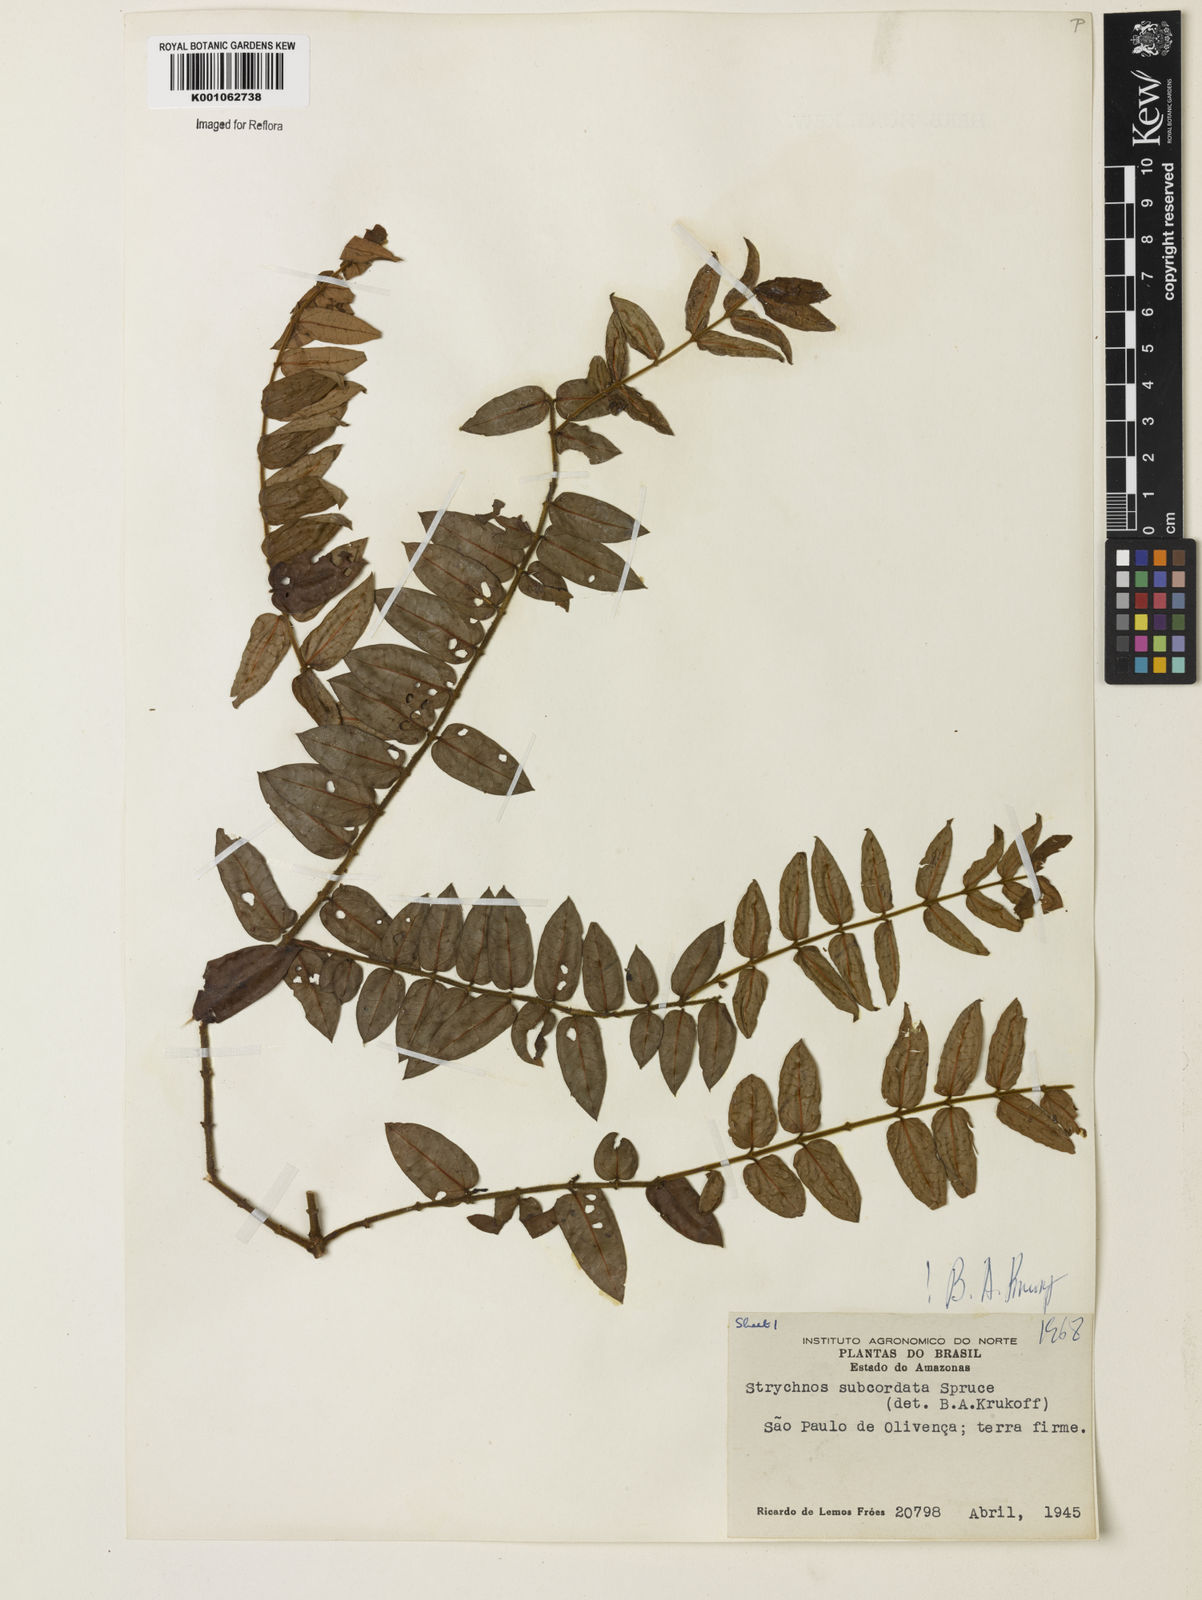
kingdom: Plantae
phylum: Tracheophyta
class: Magnoliopsida
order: Gentianales
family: Loganiaceae
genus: Strychnos
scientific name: Strychnos subcordata
